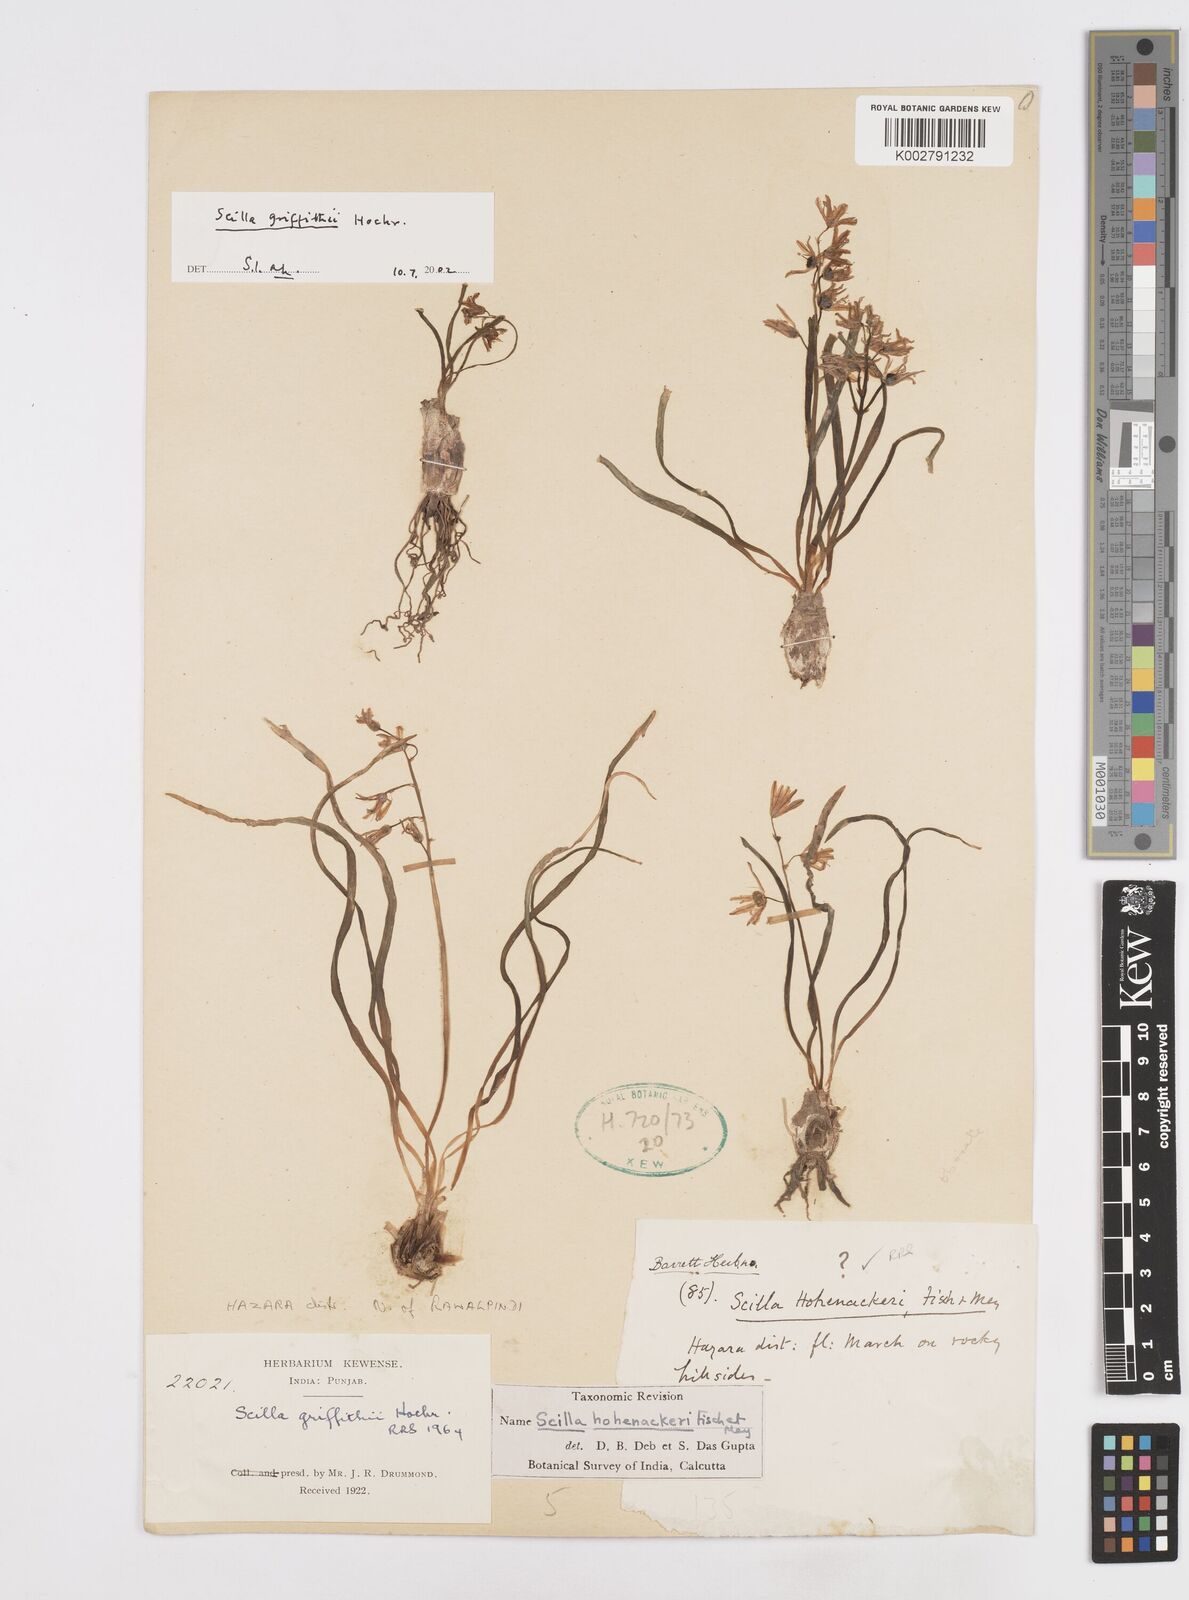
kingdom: Plantae
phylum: Tracheophyta
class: Liliopsida
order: Asparagales
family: Asparagaceae
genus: Scilla
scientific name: Scilla bifolia
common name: Alpine squill
